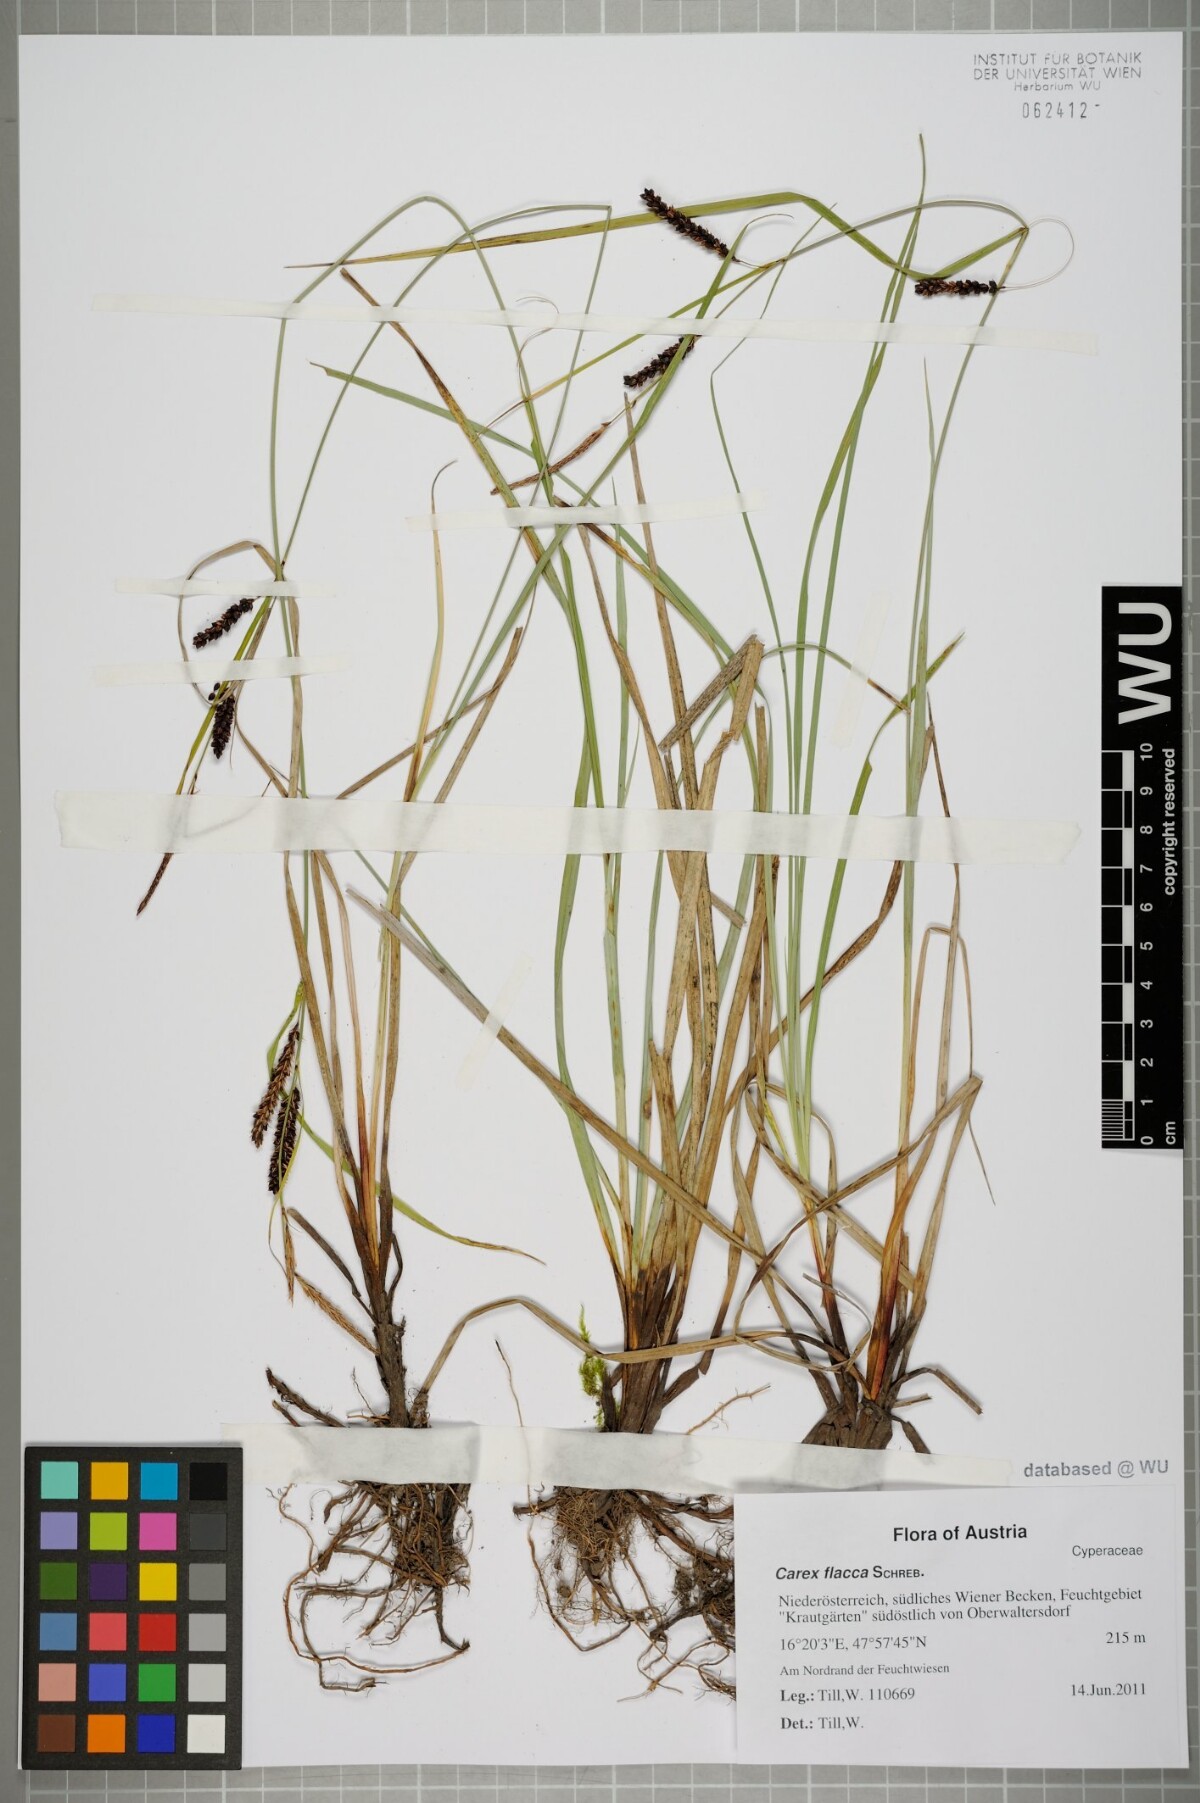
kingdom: Plantae
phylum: Tracheophyta
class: Liliopsida
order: Poales
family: Cyperaceae
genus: Carex
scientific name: Carex flacca
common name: Glaucous sedge
